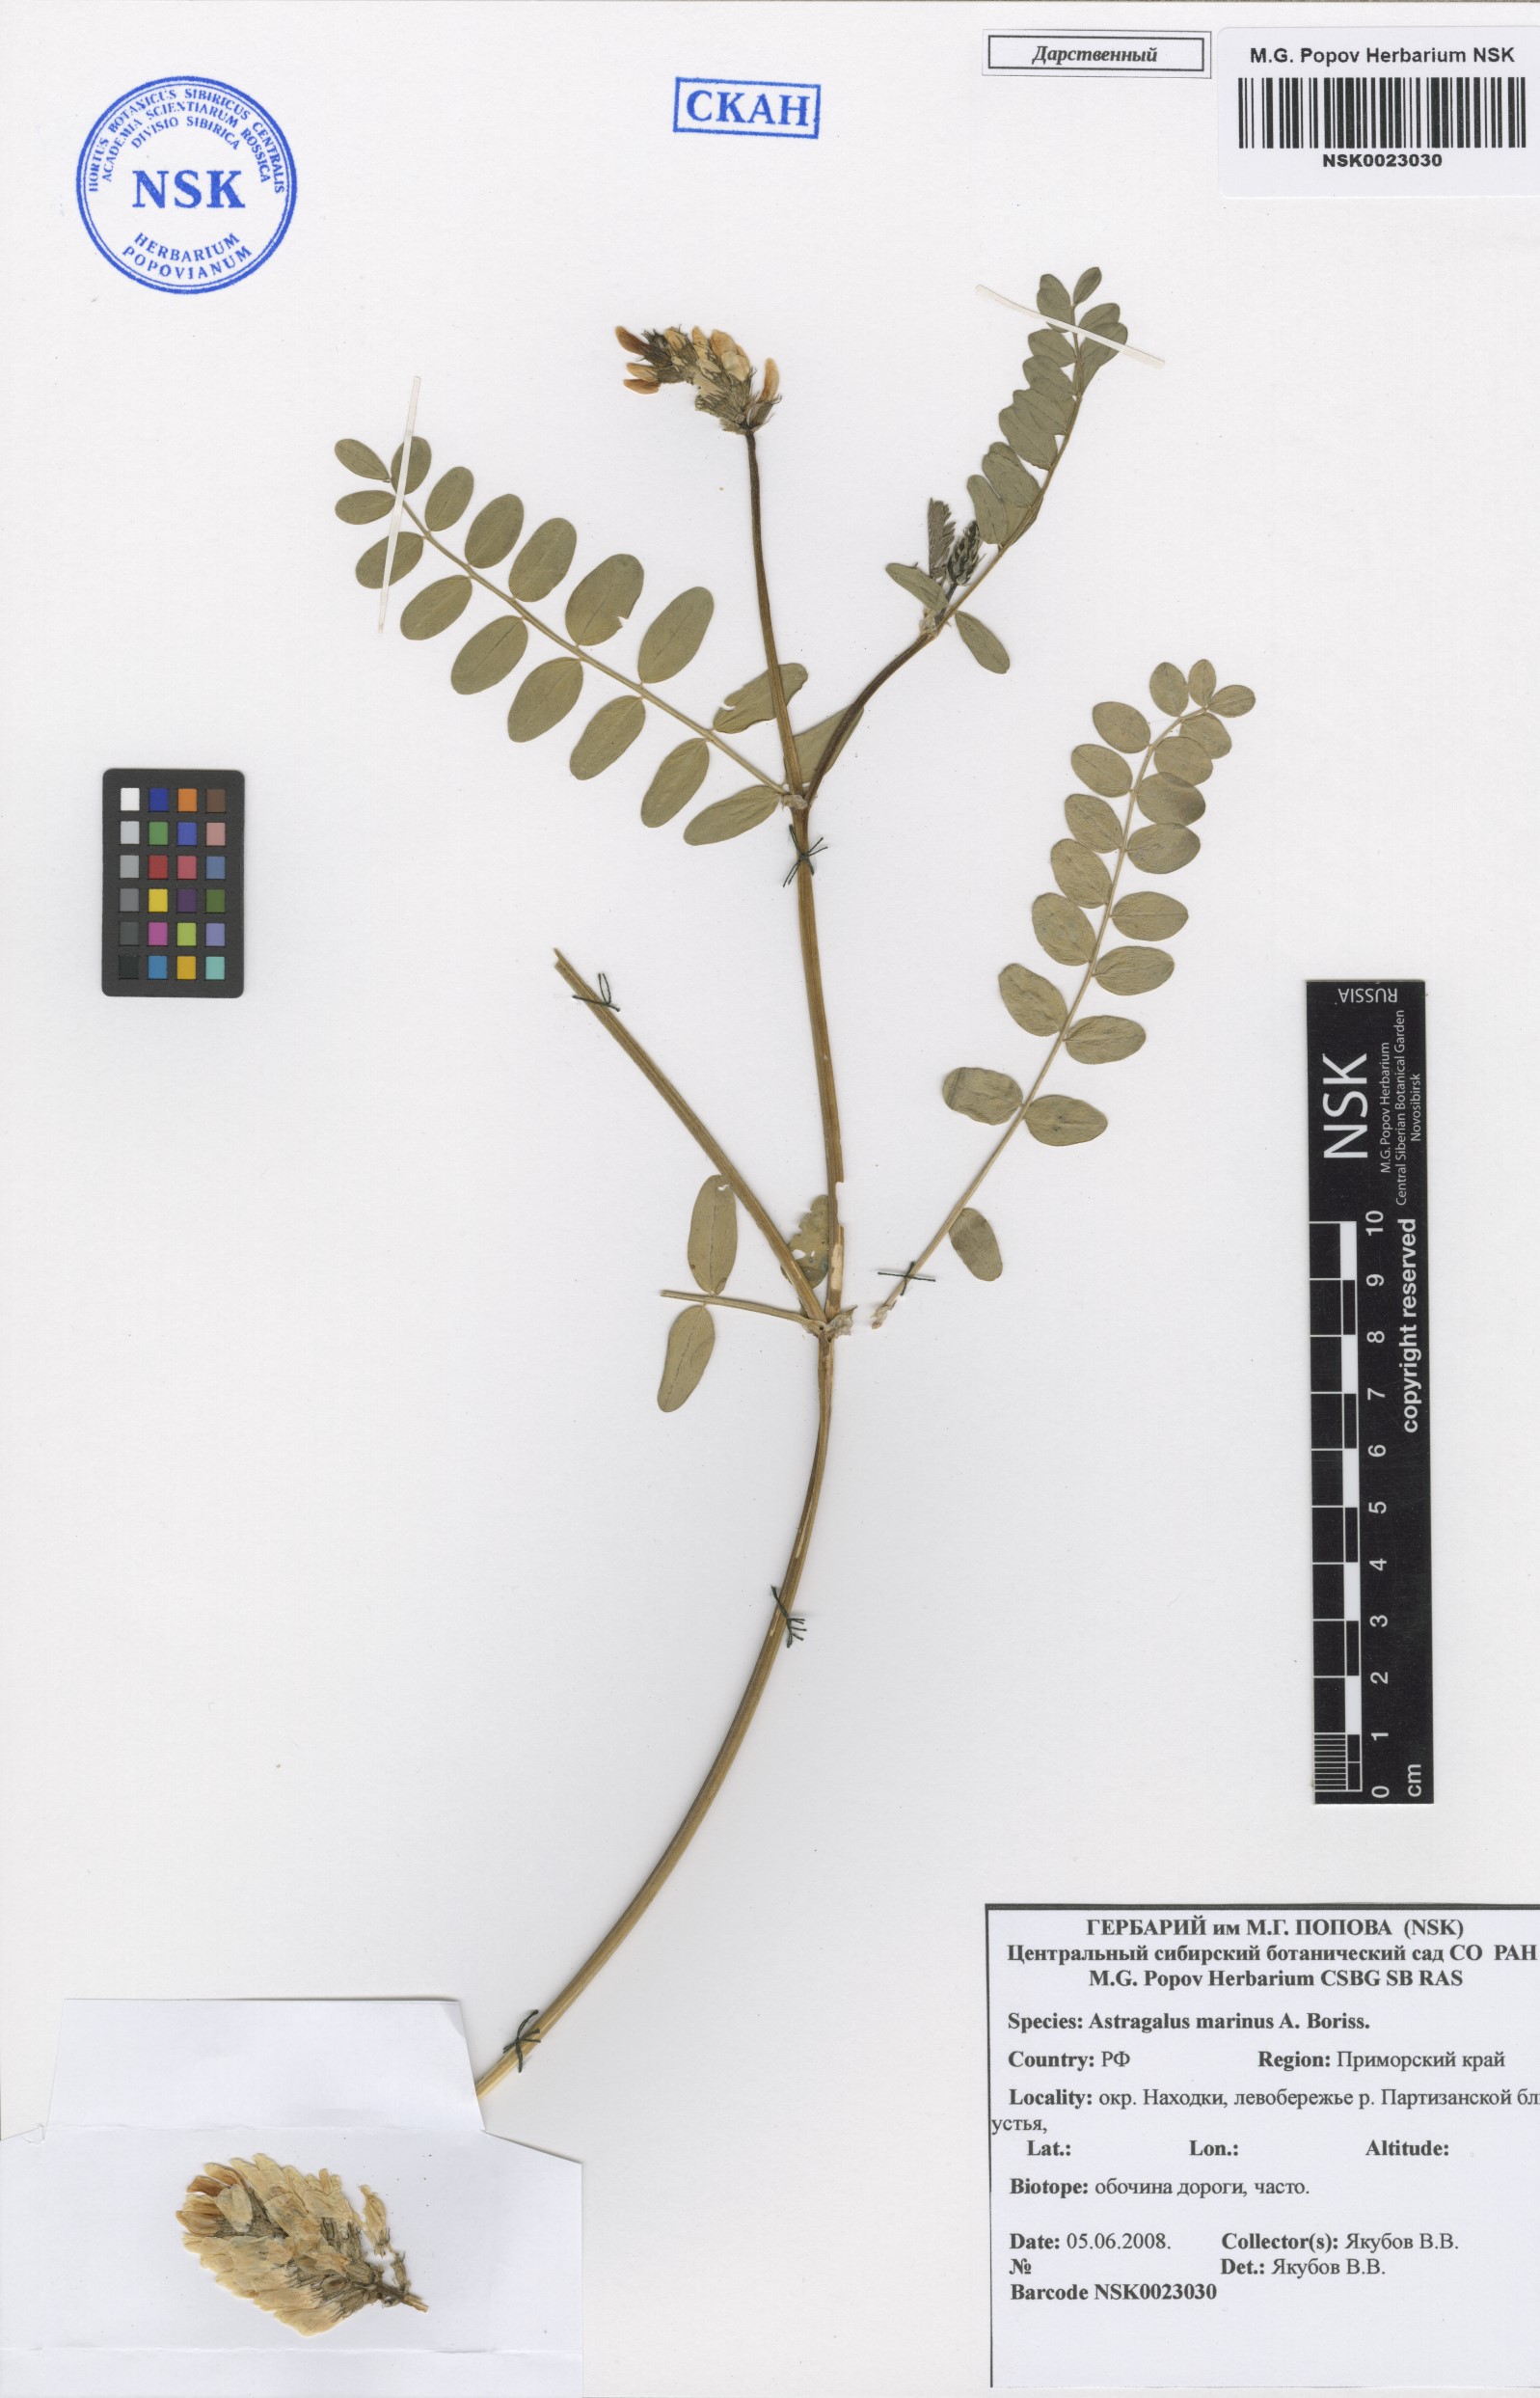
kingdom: Plantae
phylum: Tracheophyta
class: Magnoliopsida
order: Fabales
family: Fabaceae
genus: Astragalus
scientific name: Astragalus marinus
